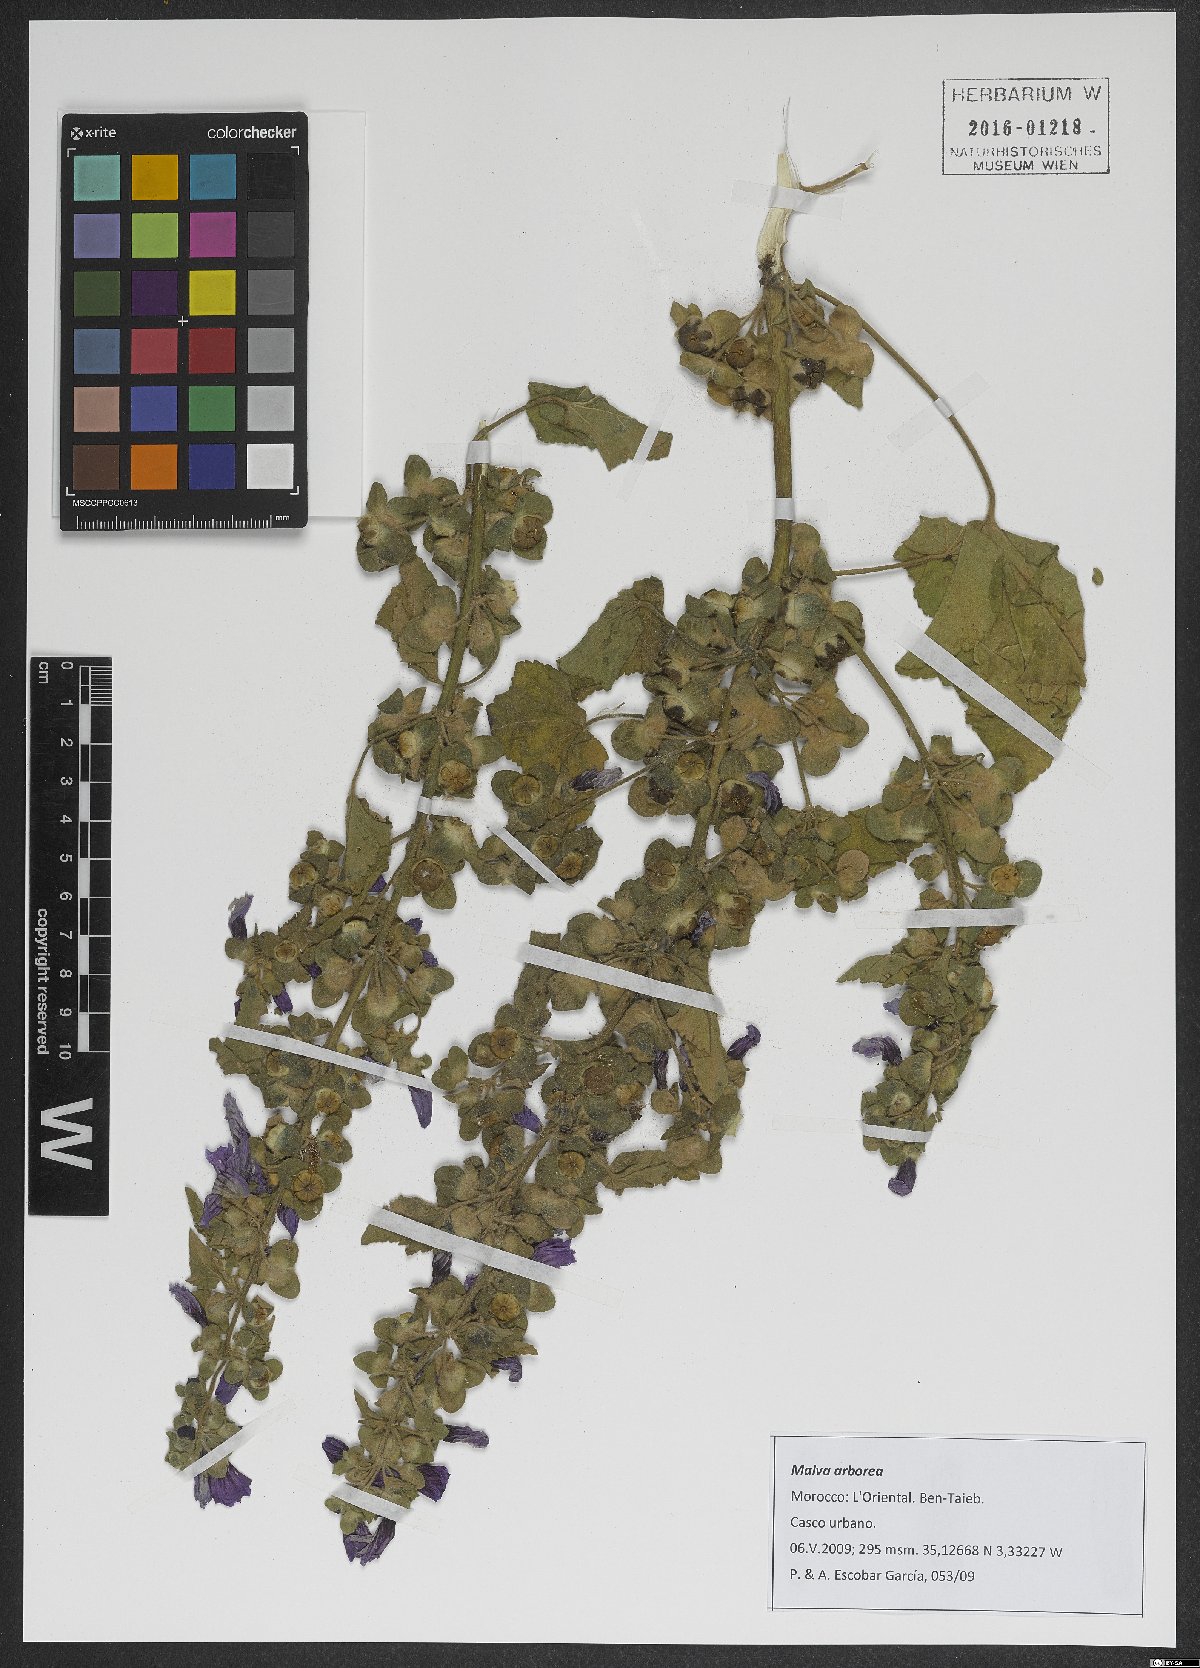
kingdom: Plantae
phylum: Tracheophyta
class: Magnoliopsida
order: Malvales
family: Malvaceae
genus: Malva
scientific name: Malva arborea
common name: Tree mallow
